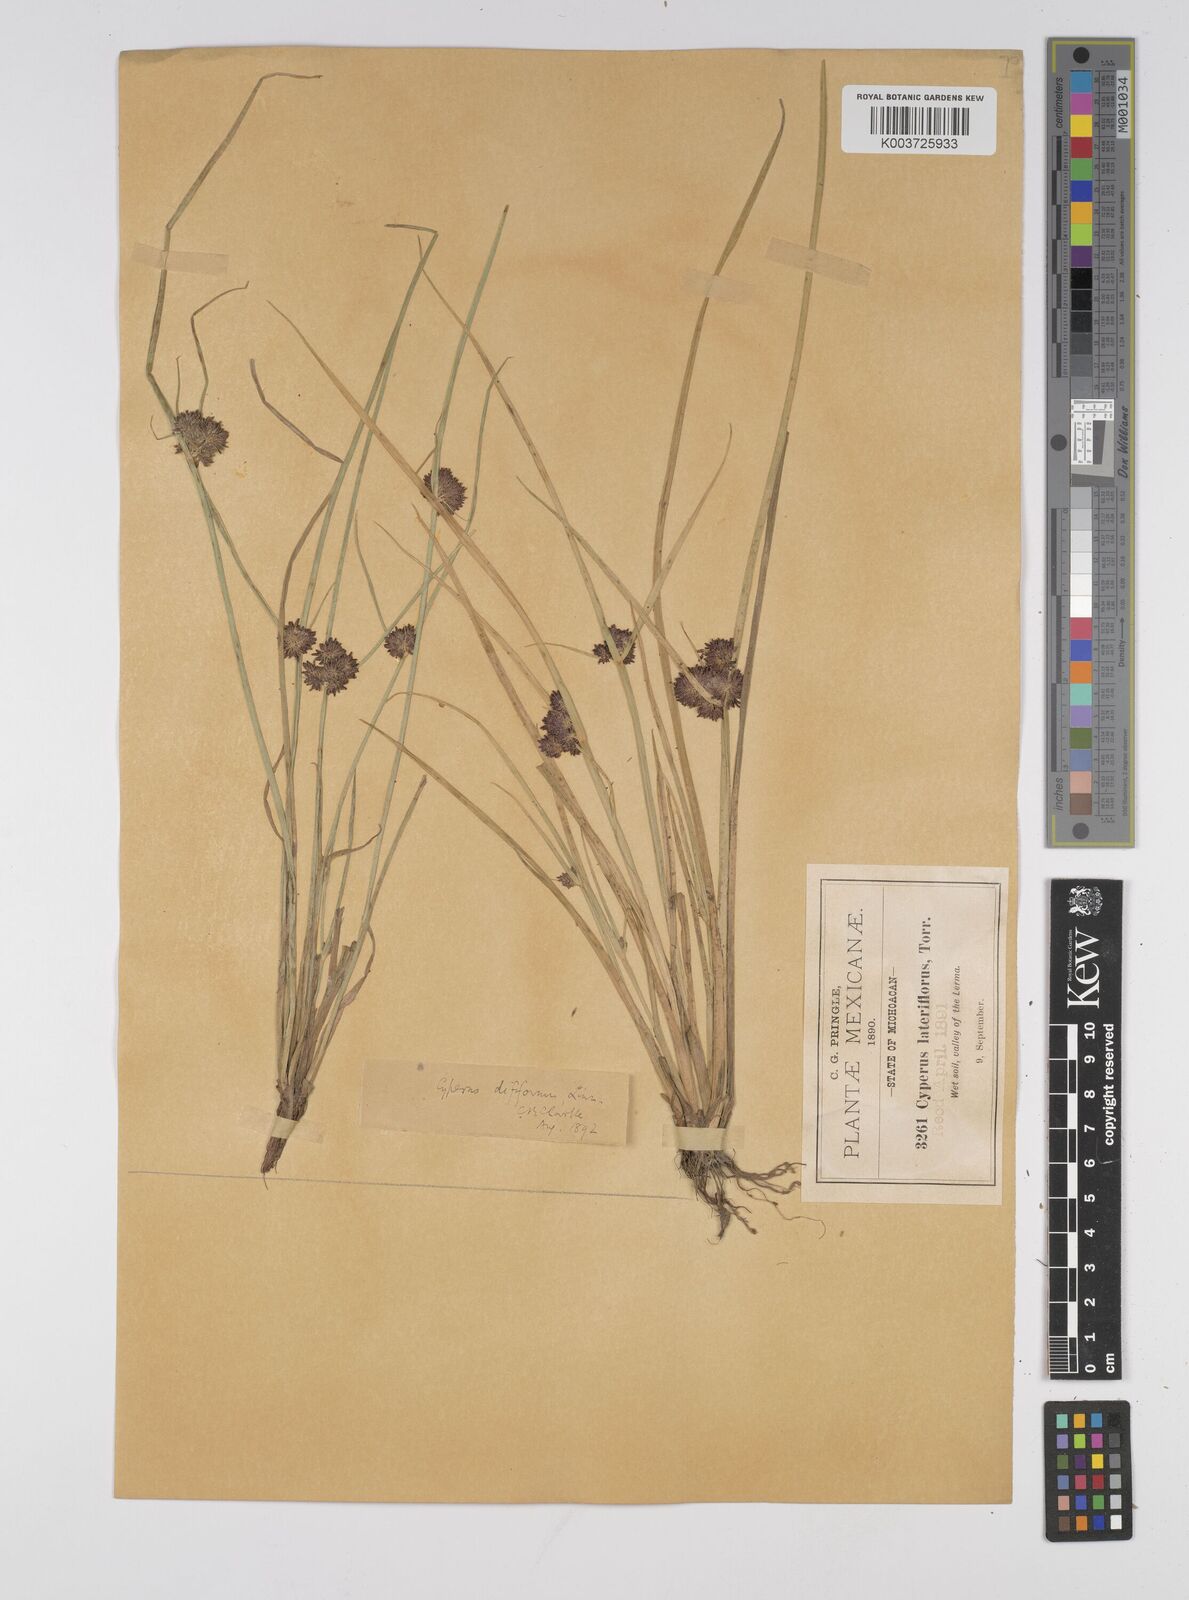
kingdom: Plantae
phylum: Tracheophyta
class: Liliopsida
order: Poales
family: Cyperaceae
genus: Cyperus
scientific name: Cyperus difformis
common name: Variable flatsedge
